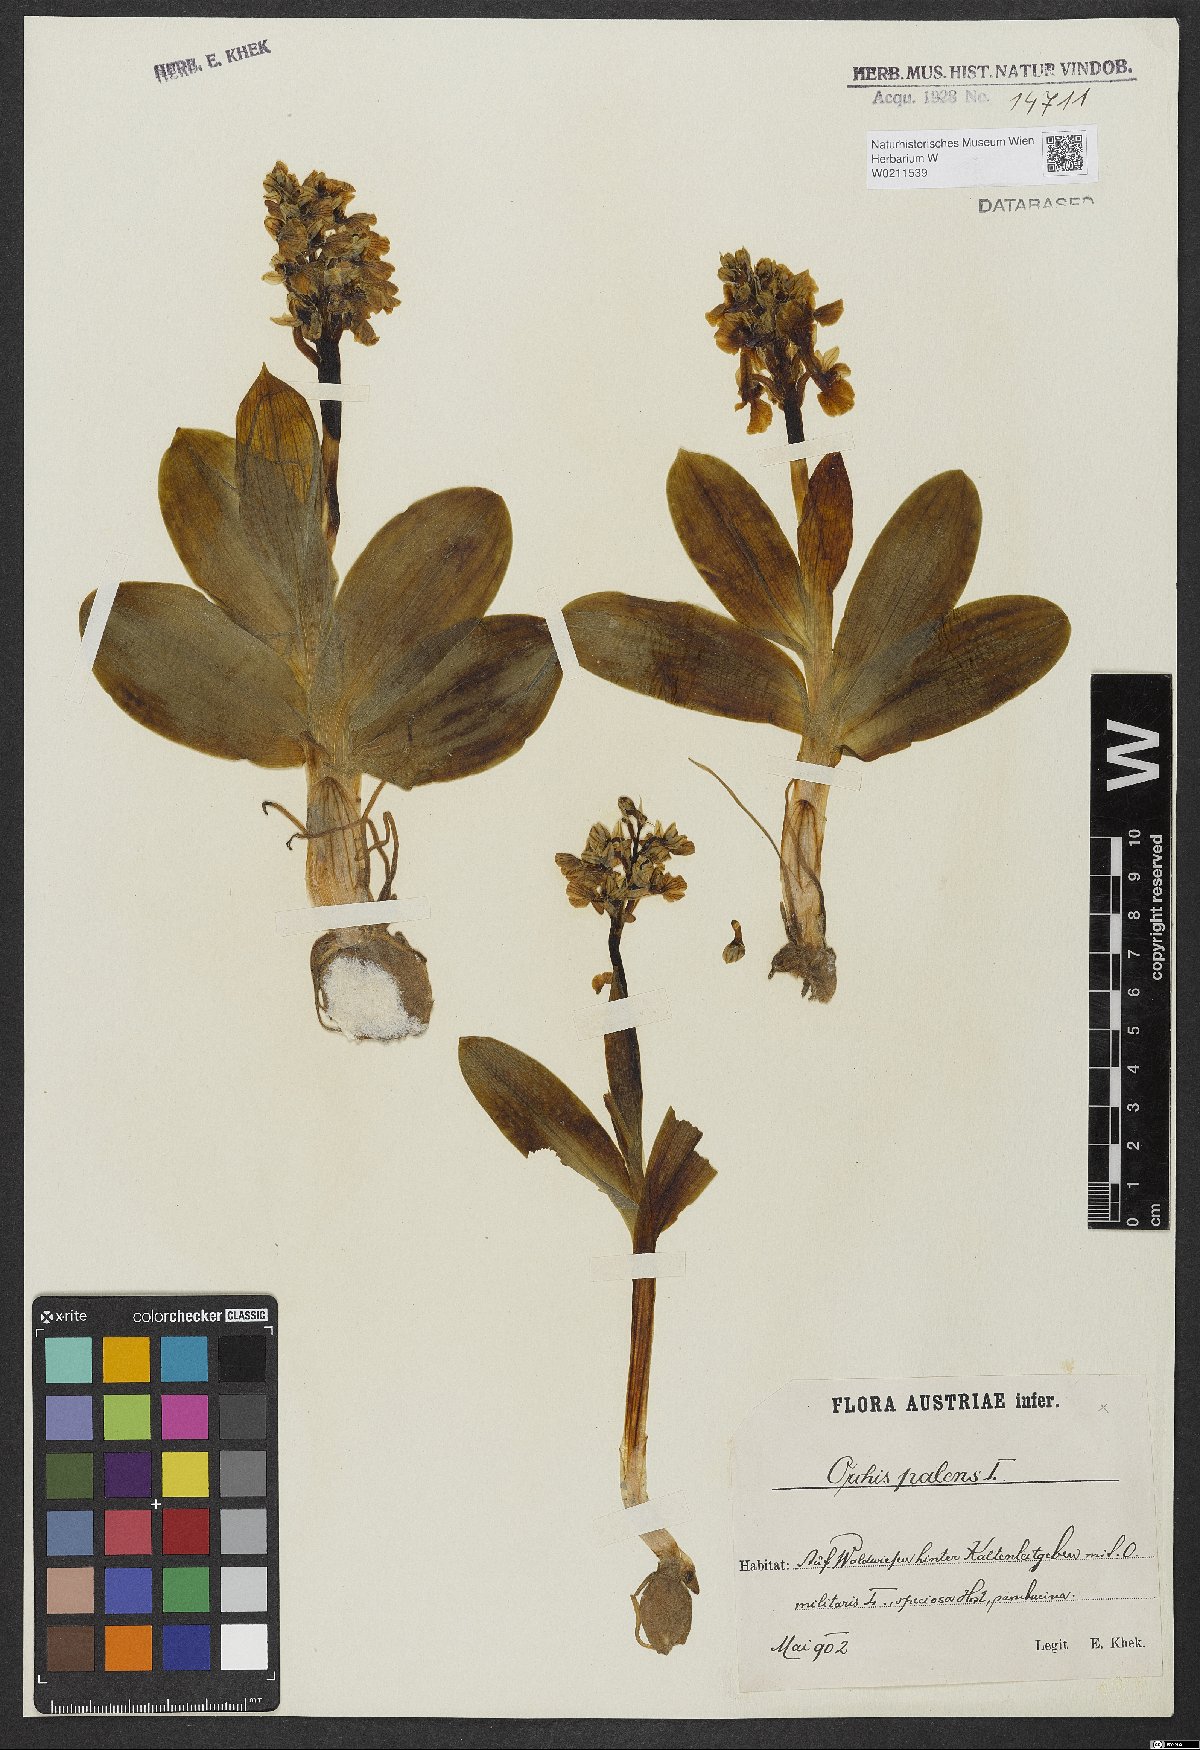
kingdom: Plantae
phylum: Tracheophyta
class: Liliopsida
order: Asparagales
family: Orchidaceae
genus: Orchis
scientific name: Orchis pallens
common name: Pale-flowered orchid
